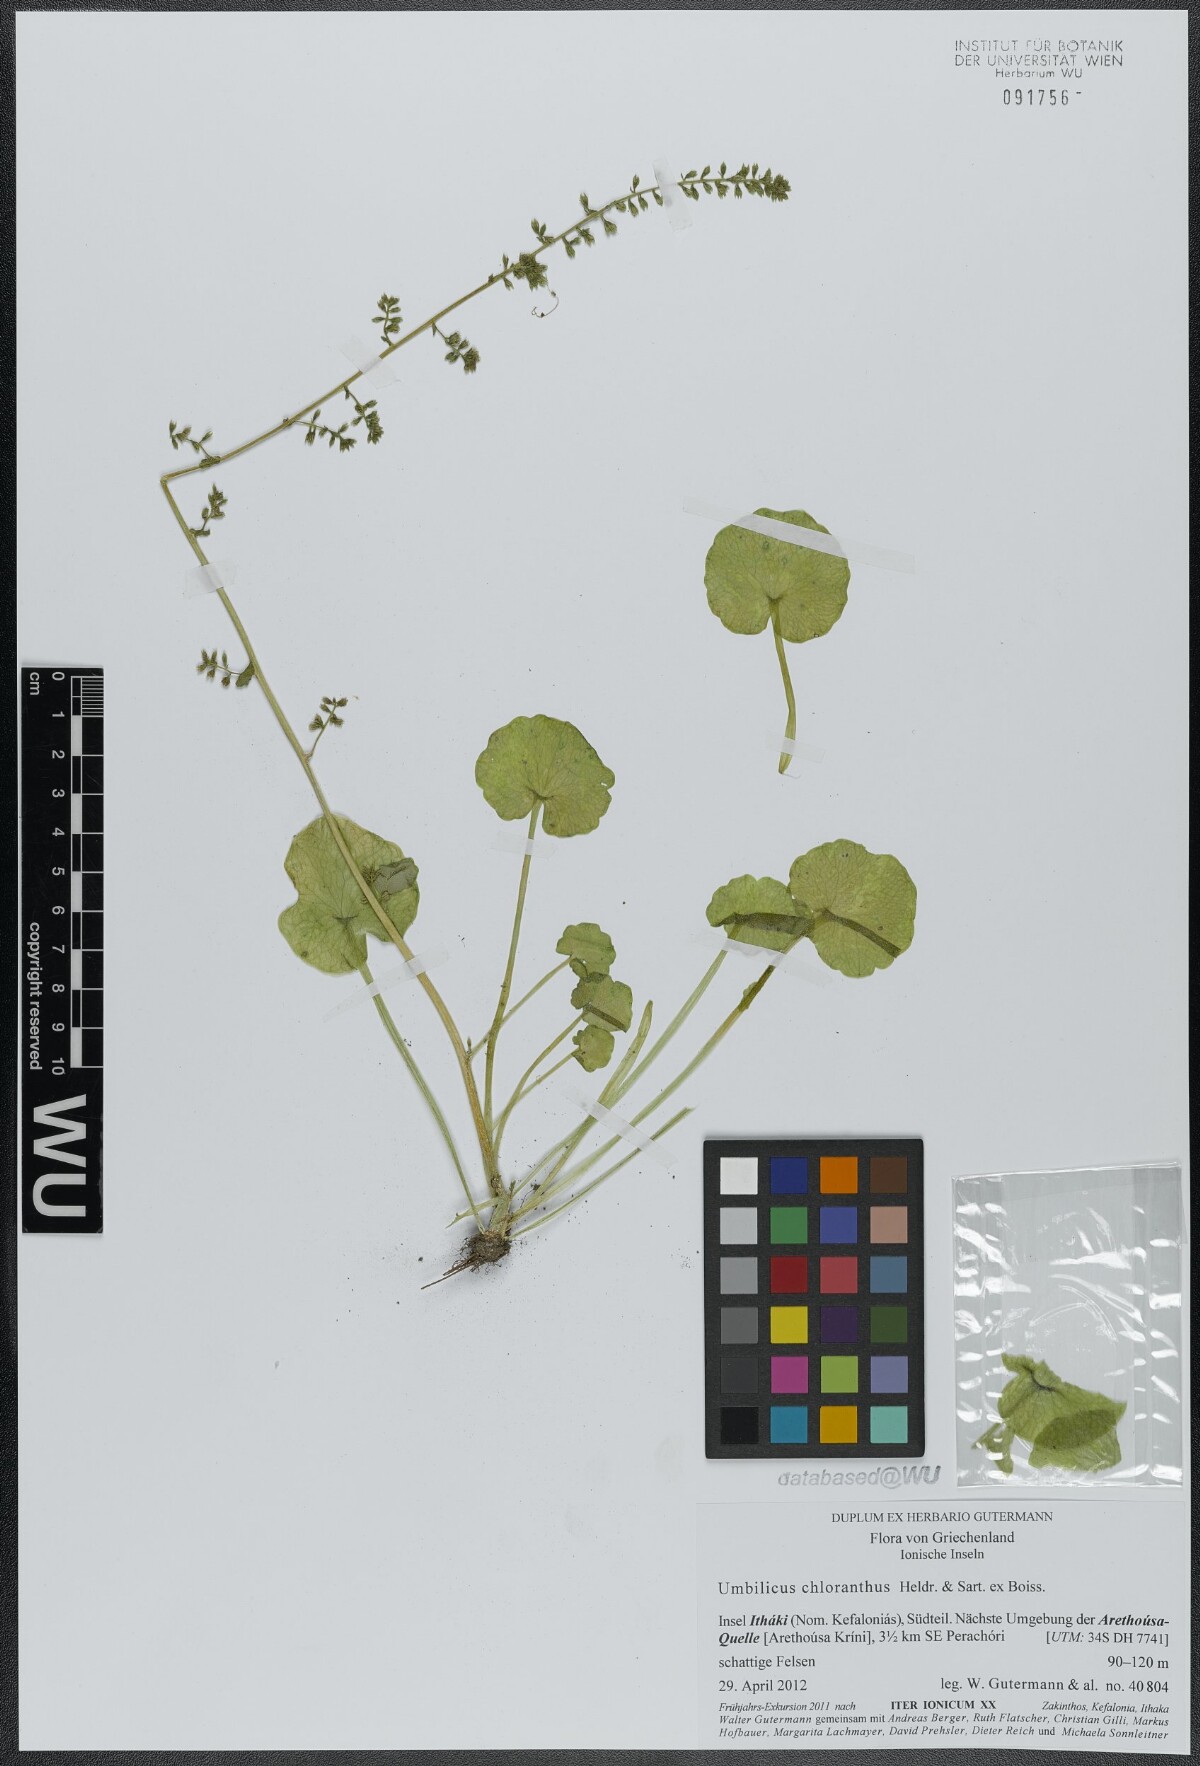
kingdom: Plantae
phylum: Tracheophyta
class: Magnoliopsida
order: Saxifragales
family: Crassulaceae
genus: Umbilicus
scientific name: Umbilicus chloranthus
